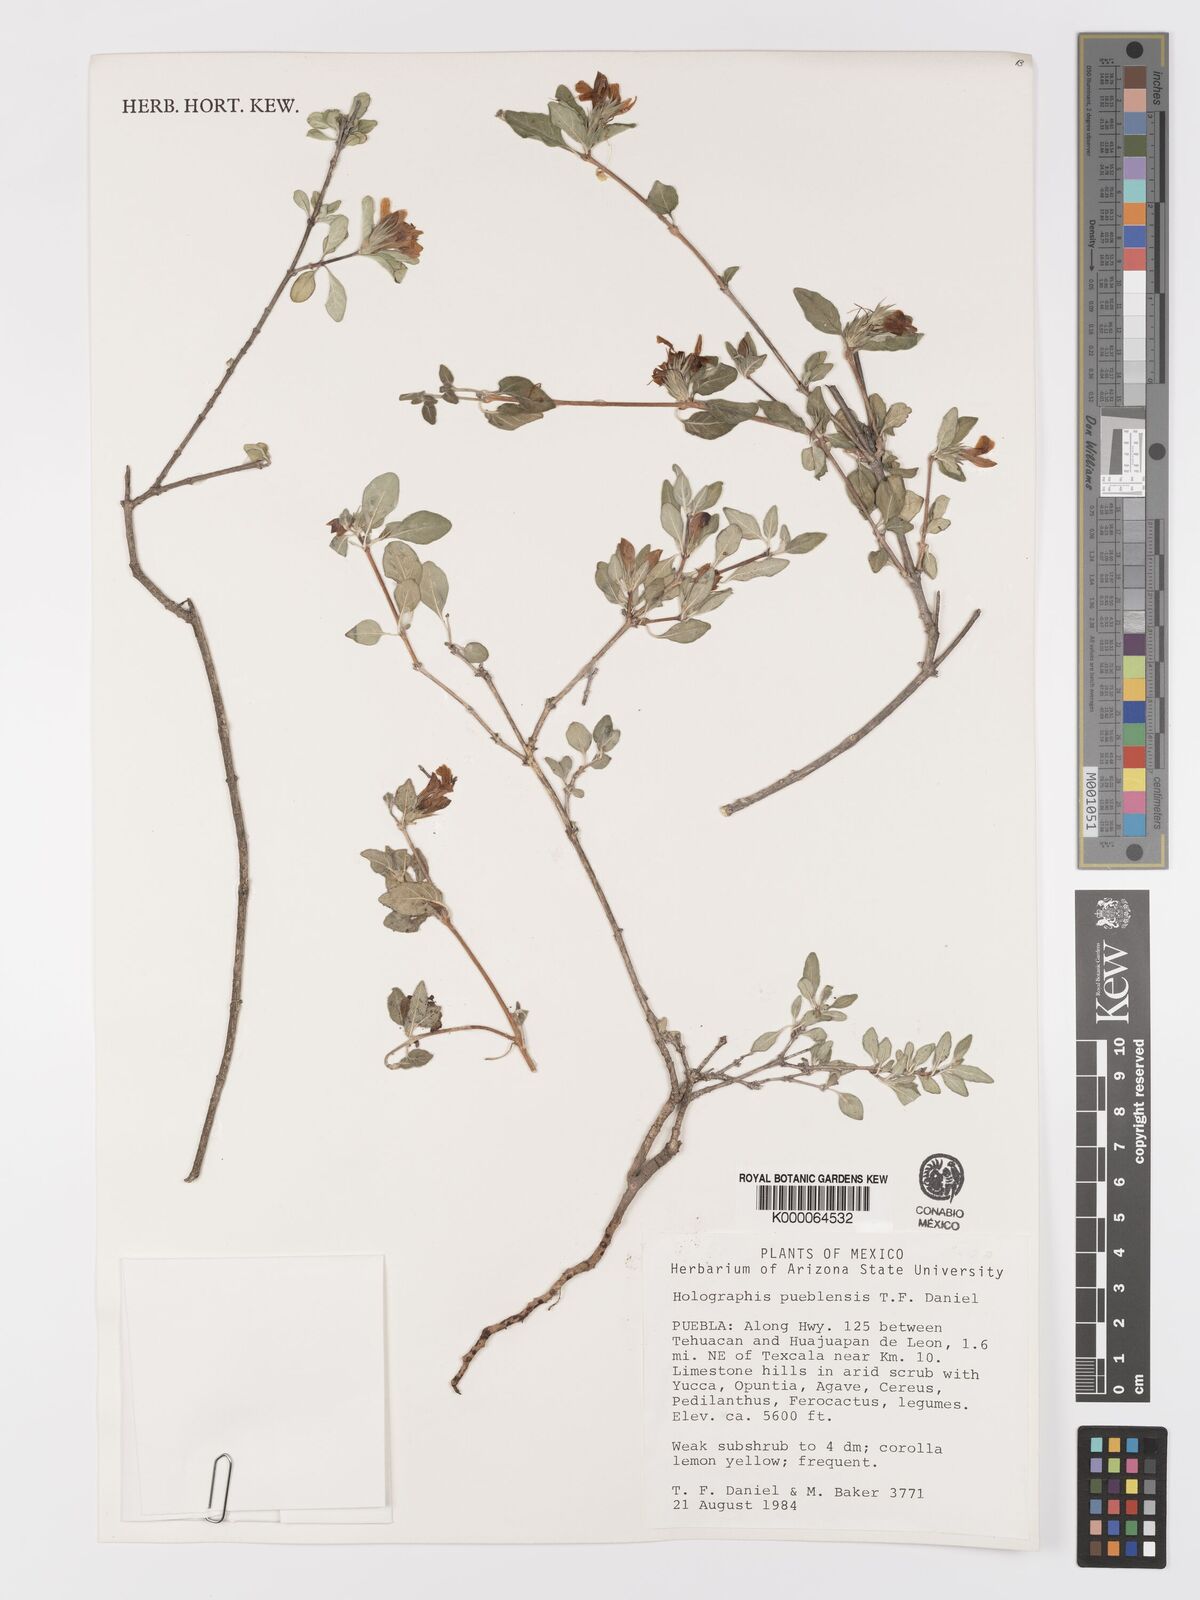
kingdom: Plantae
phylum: Tracheophyta
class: Magnoliopsida
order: Lamiales
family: Acanthaceae
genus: Holographis
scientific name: Holographis pueblensis
